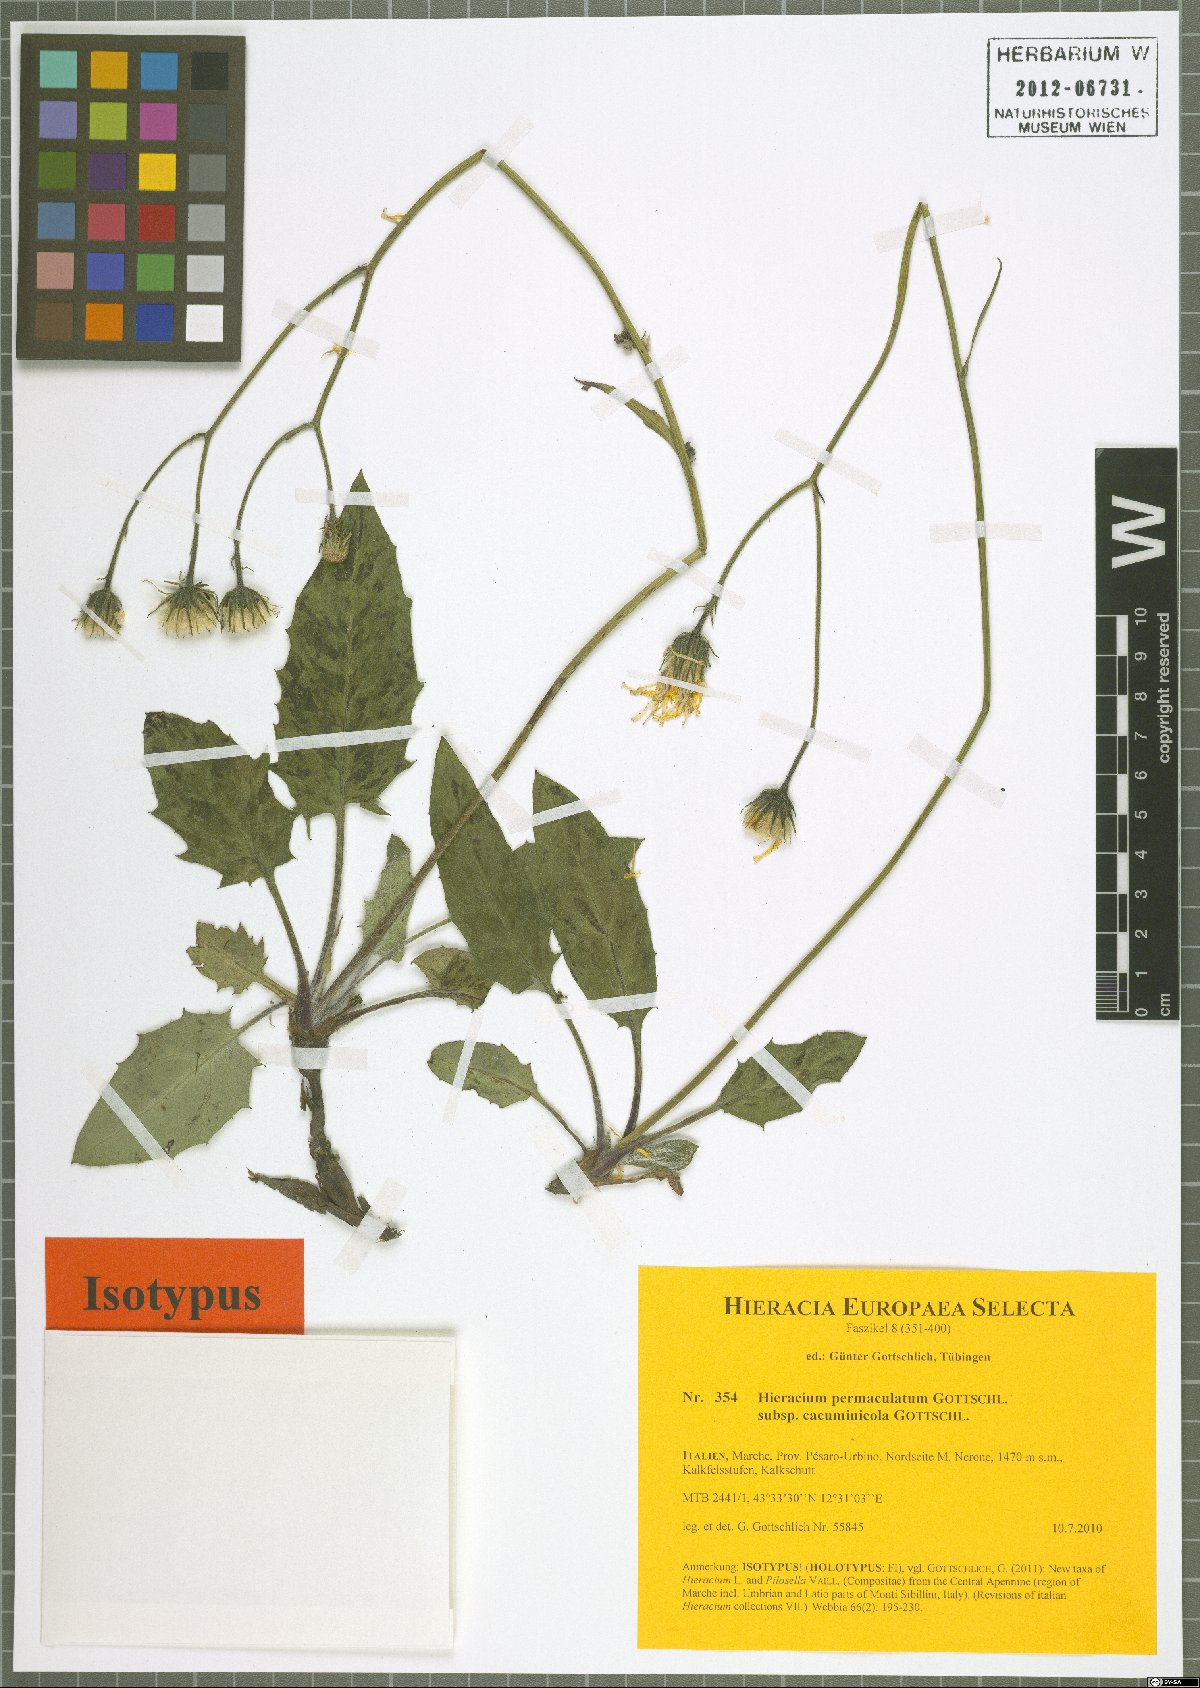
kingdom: Plantae
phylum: Tracheophyta
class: Magnoliopsida
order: Asterales
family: Asteraceae
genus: Hieracium
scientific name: Hieracium permaculatum
